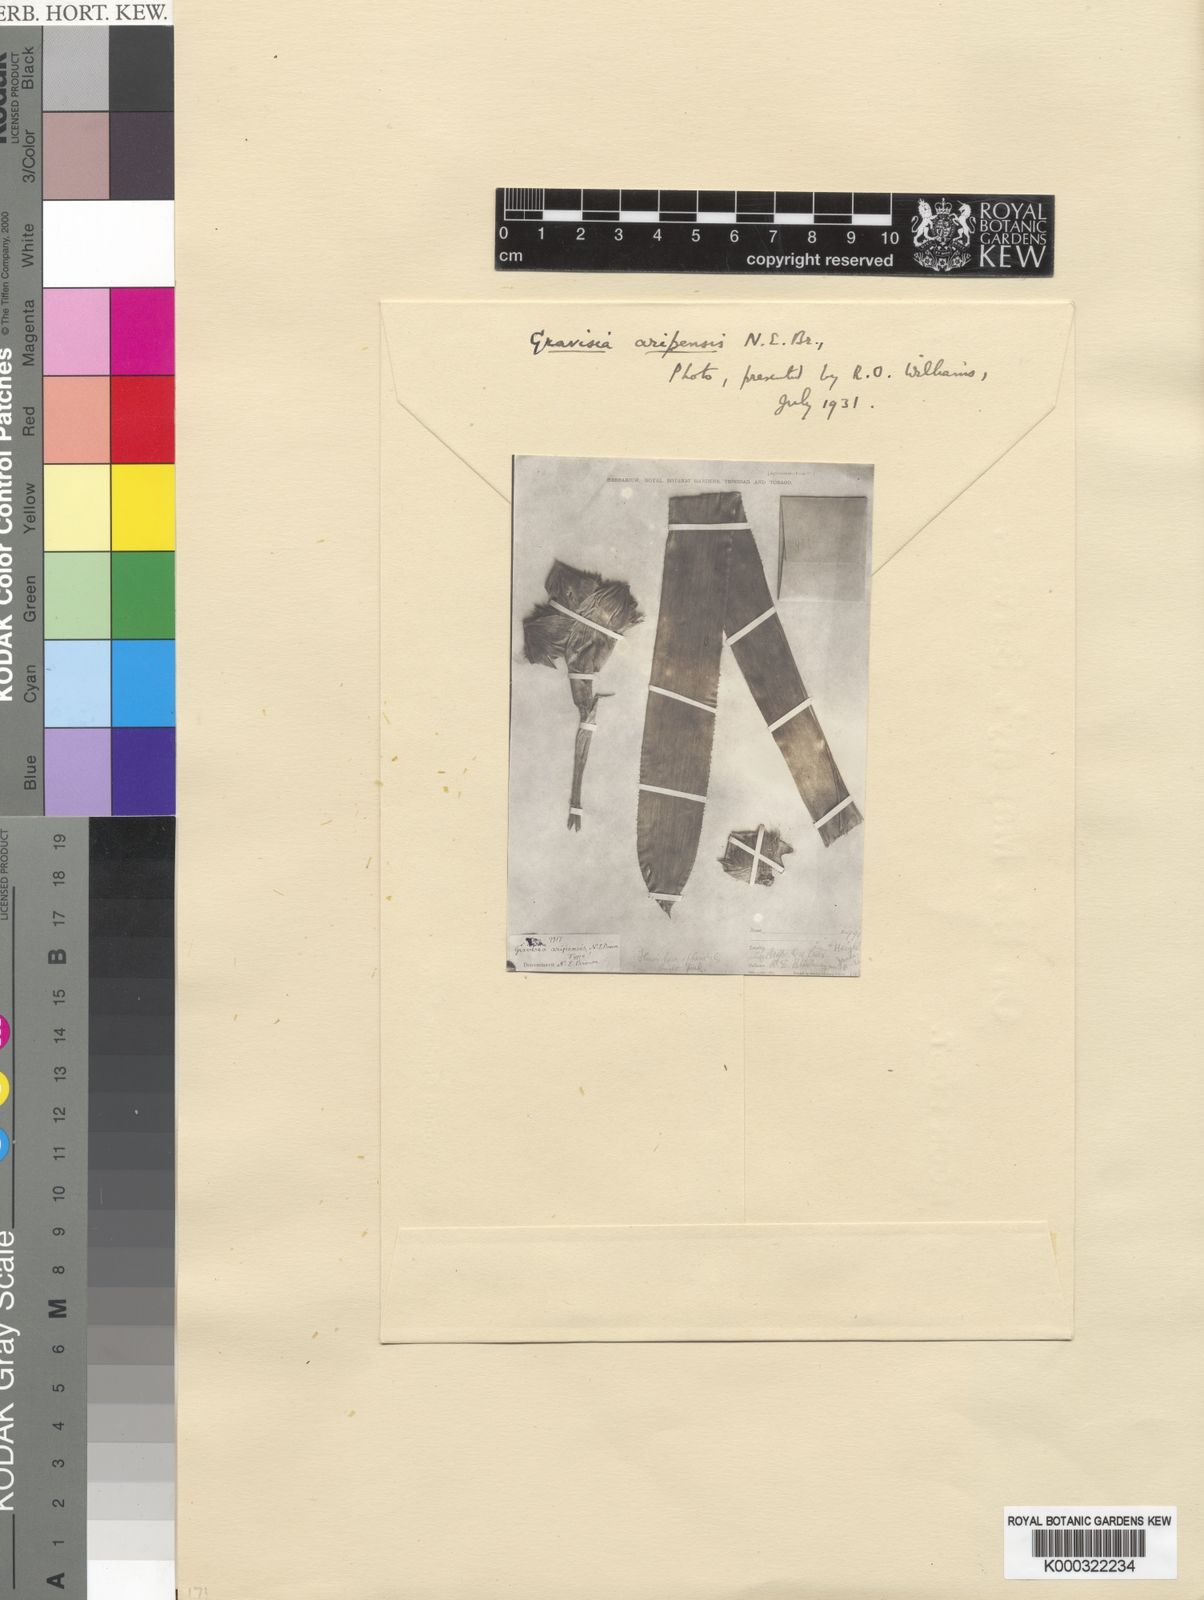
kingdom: Plantae
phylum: Tracheophyta
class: Liliopsida
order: Poales
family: Bromeliaceae
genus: Aechmea
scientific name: Aechmea
